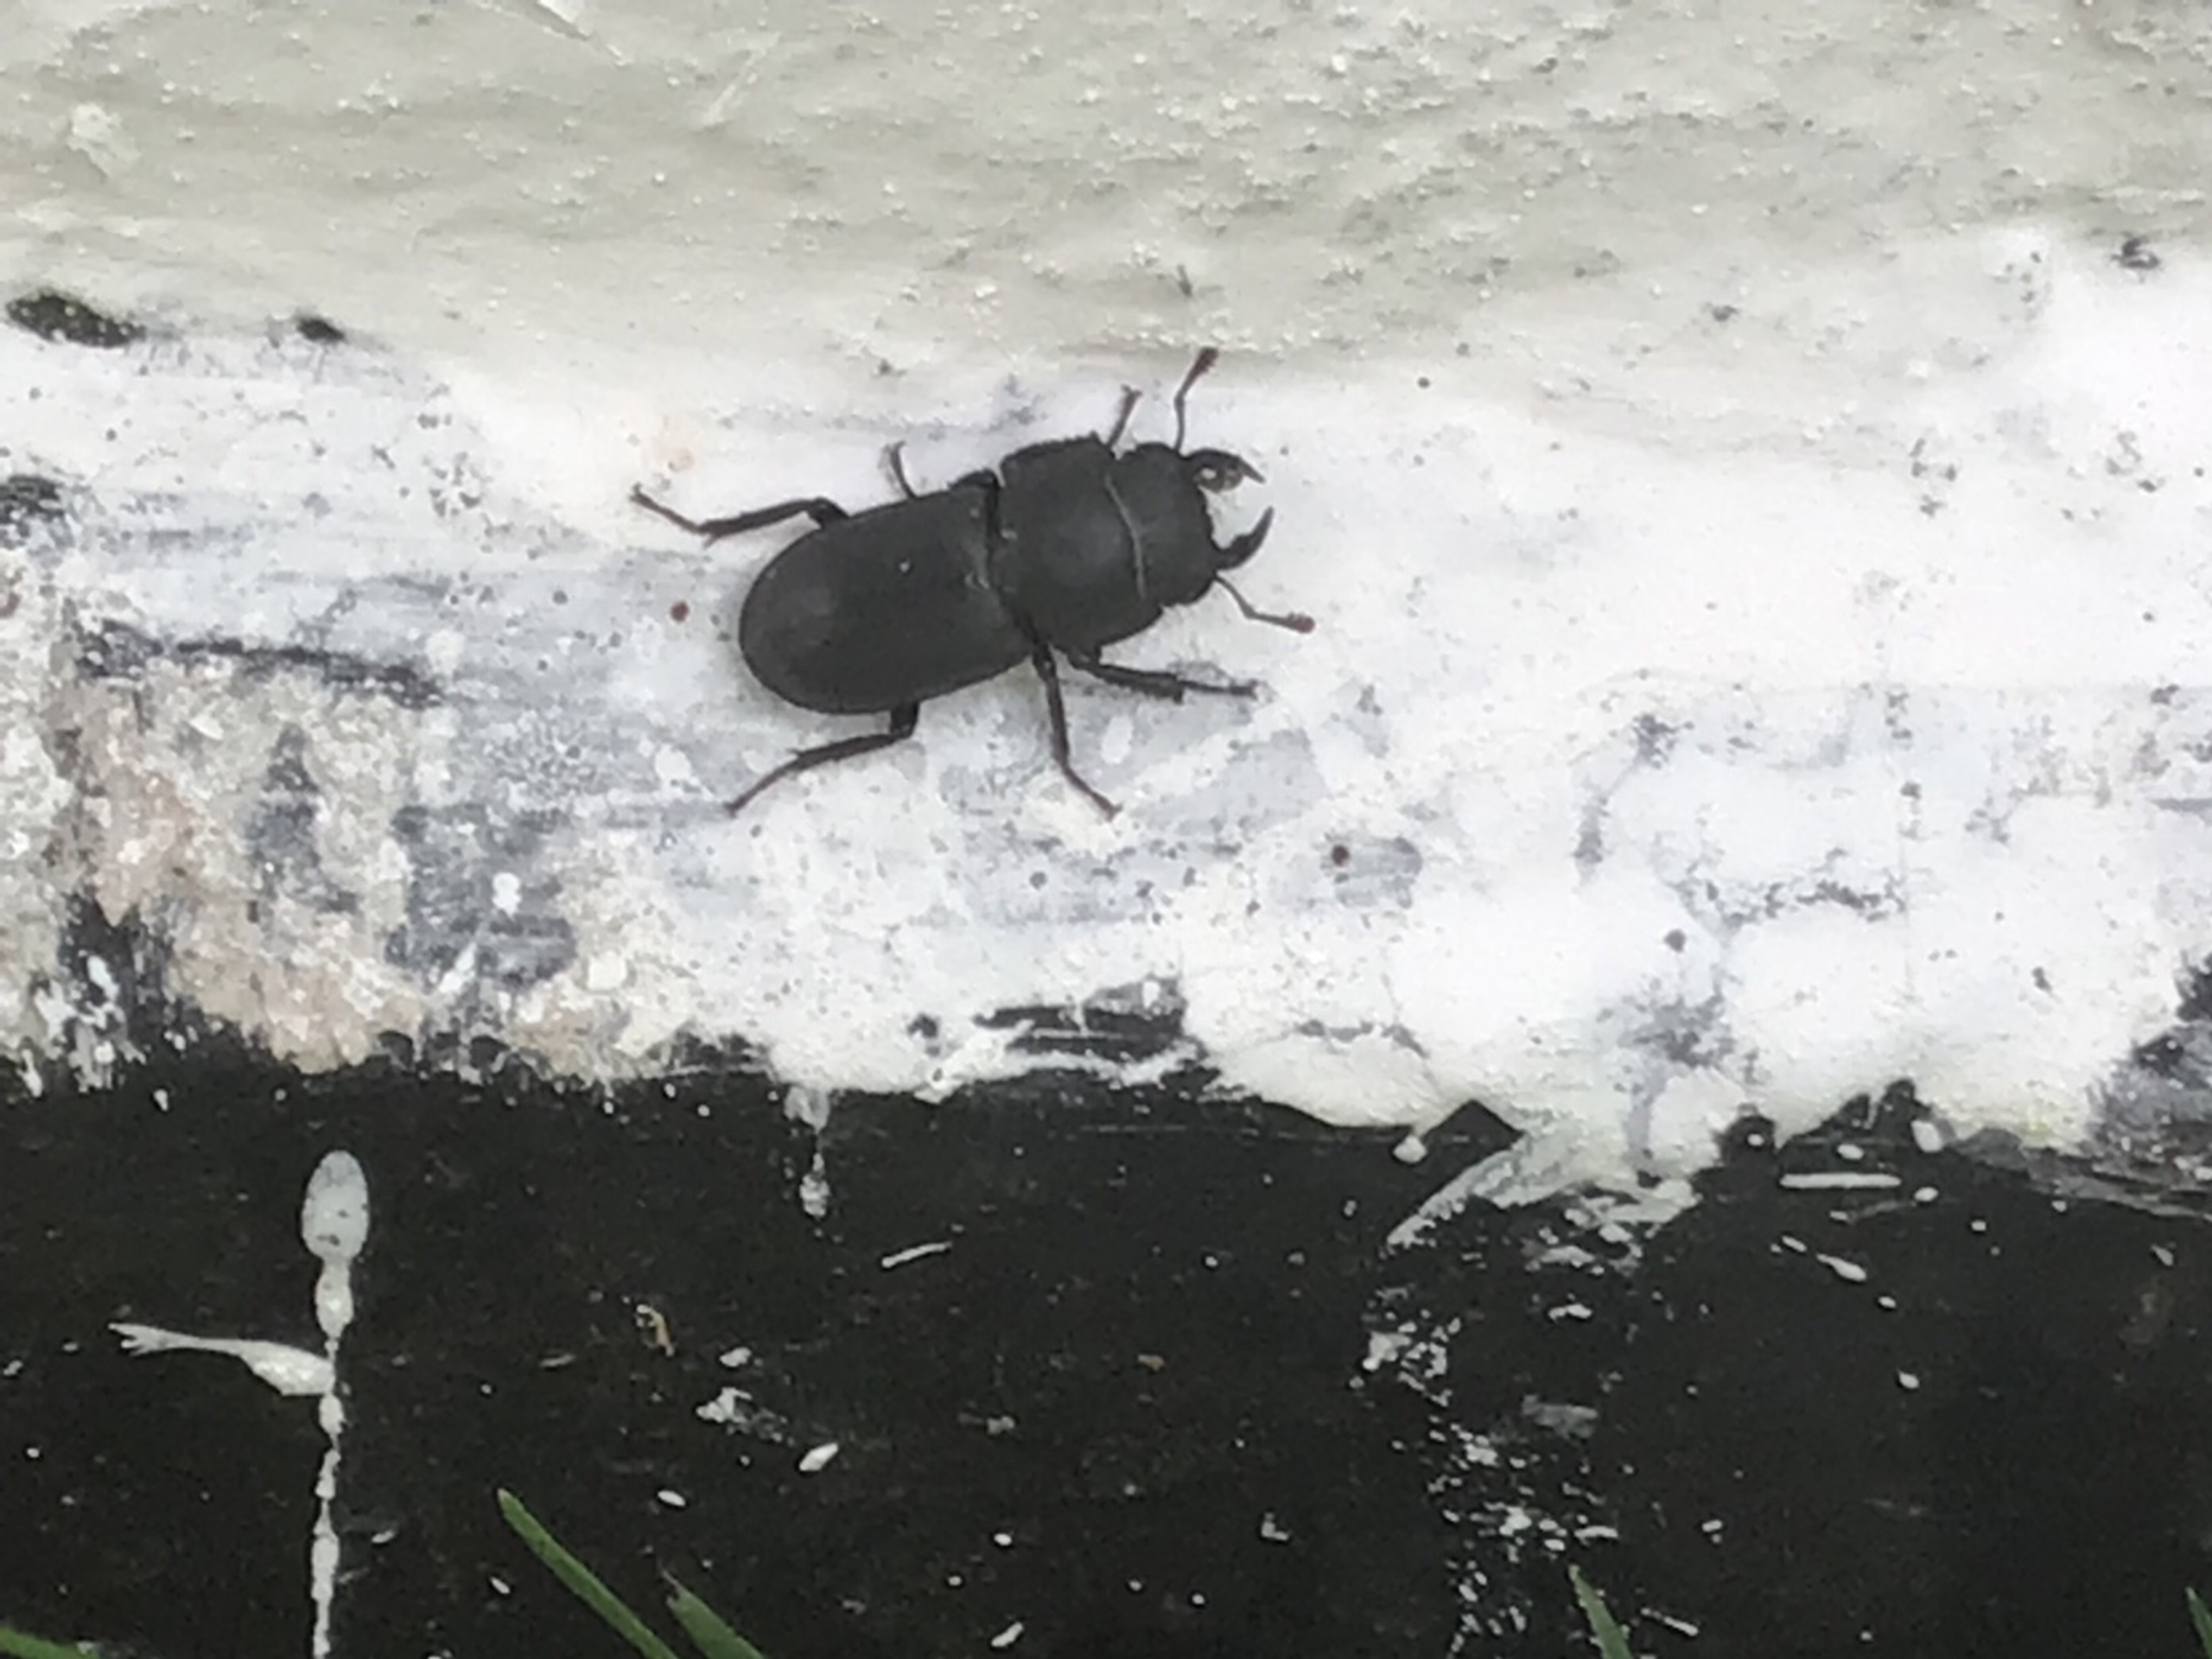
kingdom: Animalia
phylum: Arthropoda
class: Insecta
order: Coleoptera
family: Lucanidae
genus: Dorcus
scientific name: Dorcus parallelipipedus
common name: Bøghjort
